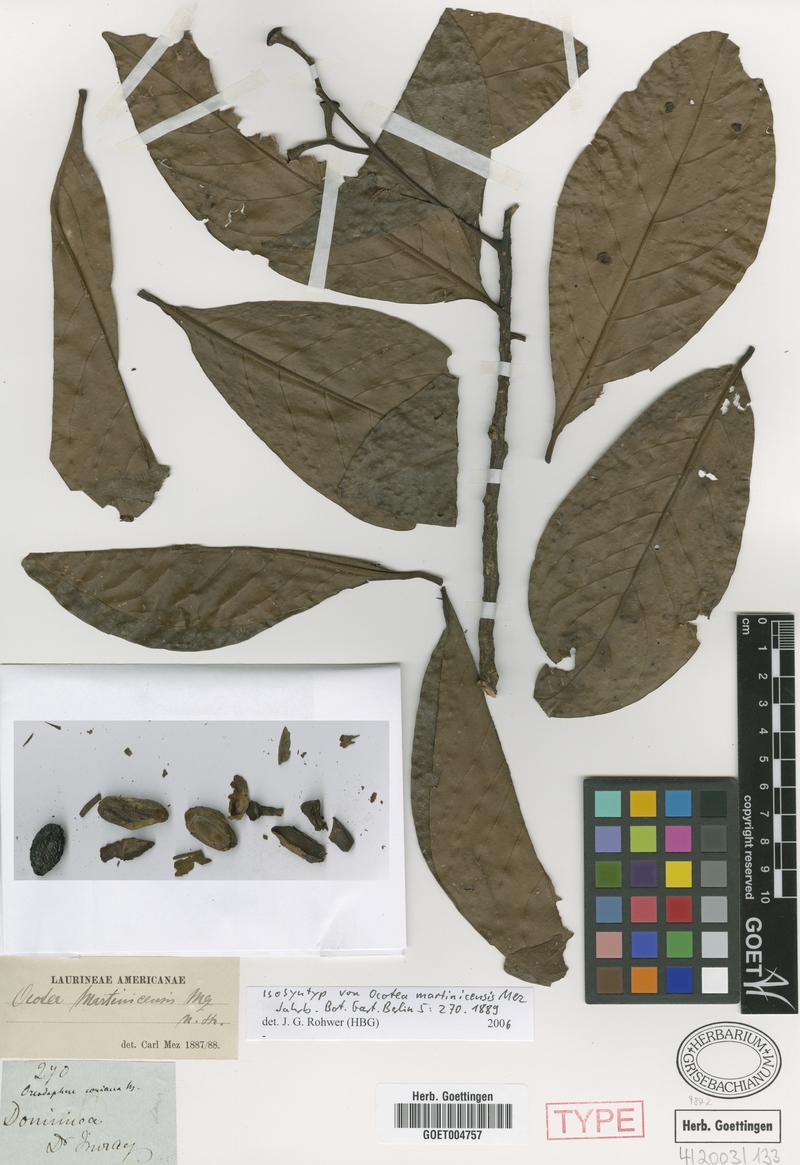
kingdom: Plantae
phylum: Tracheophyta
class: Magnoliopsida
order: Laurales
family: Lauraceae
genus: Ocotea
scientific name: Ocotea martinicensis
